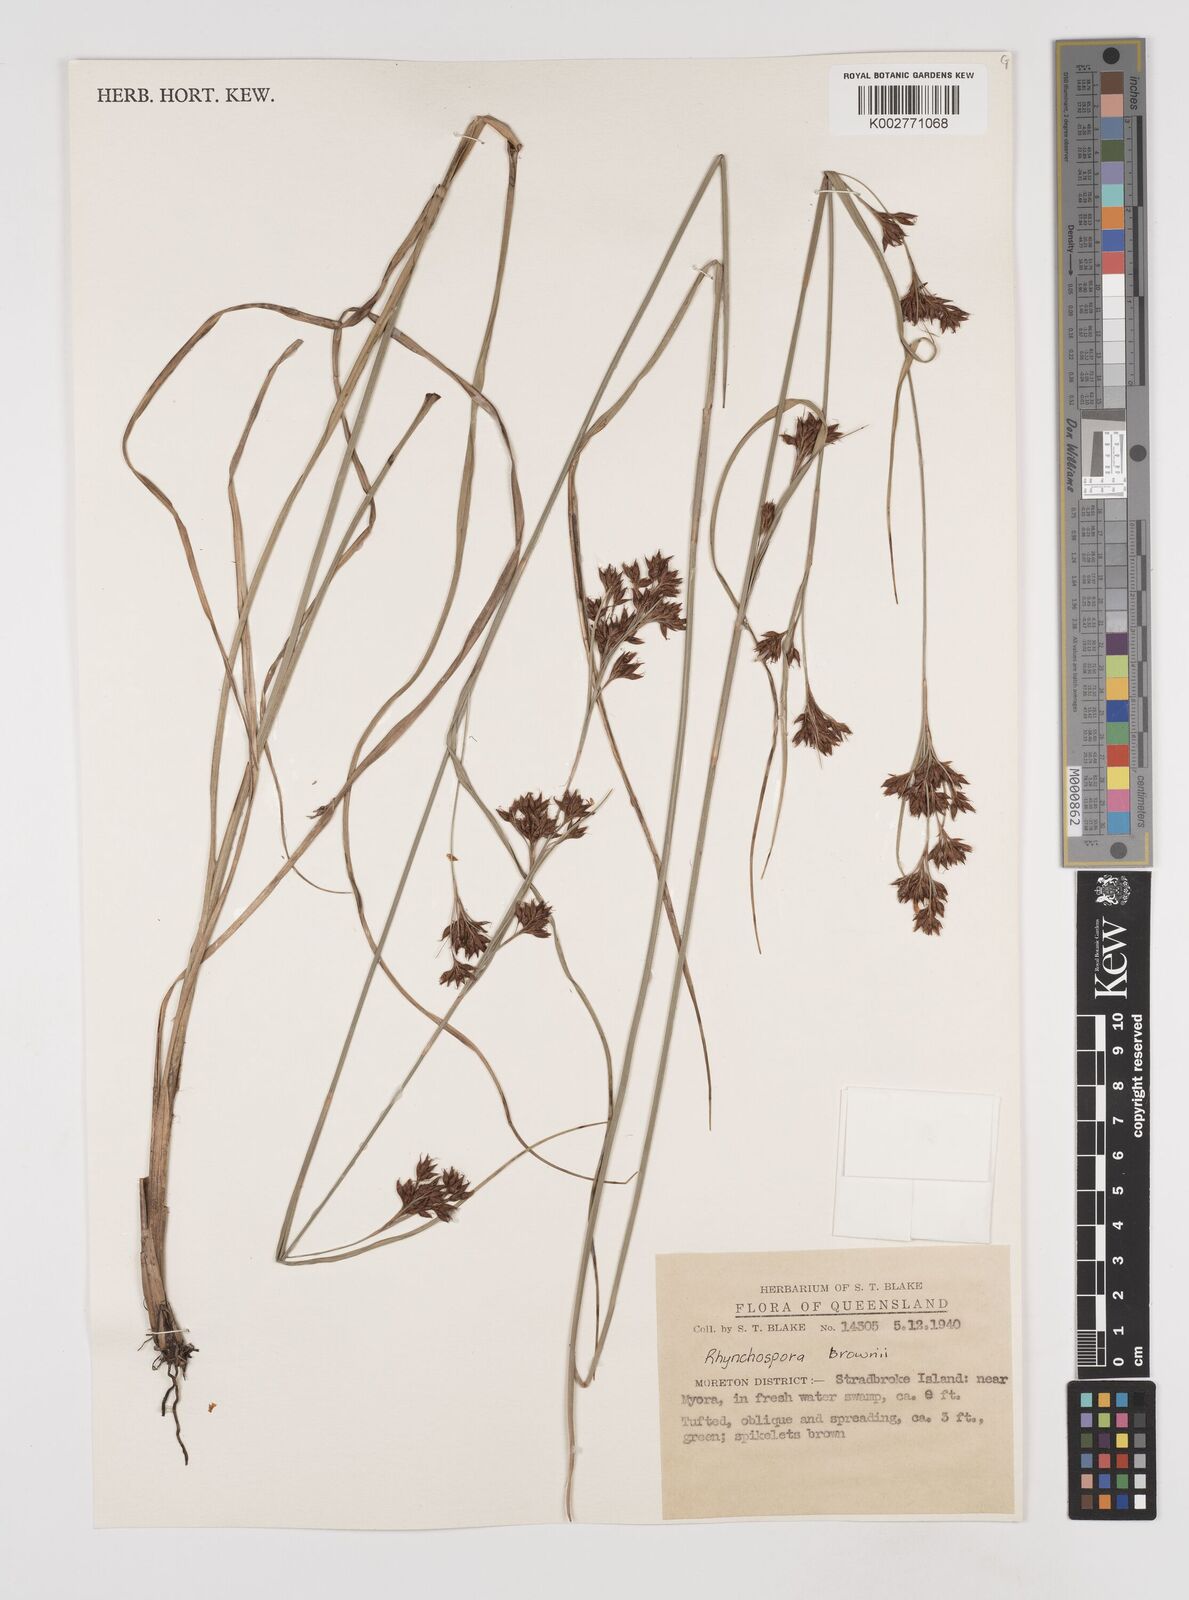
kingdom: Plantae
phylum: Tracheophyta
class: Liliopsida
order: Poales
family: Cyperaceae
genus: Rhynchospora
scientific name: Rhynchospora rugosa
